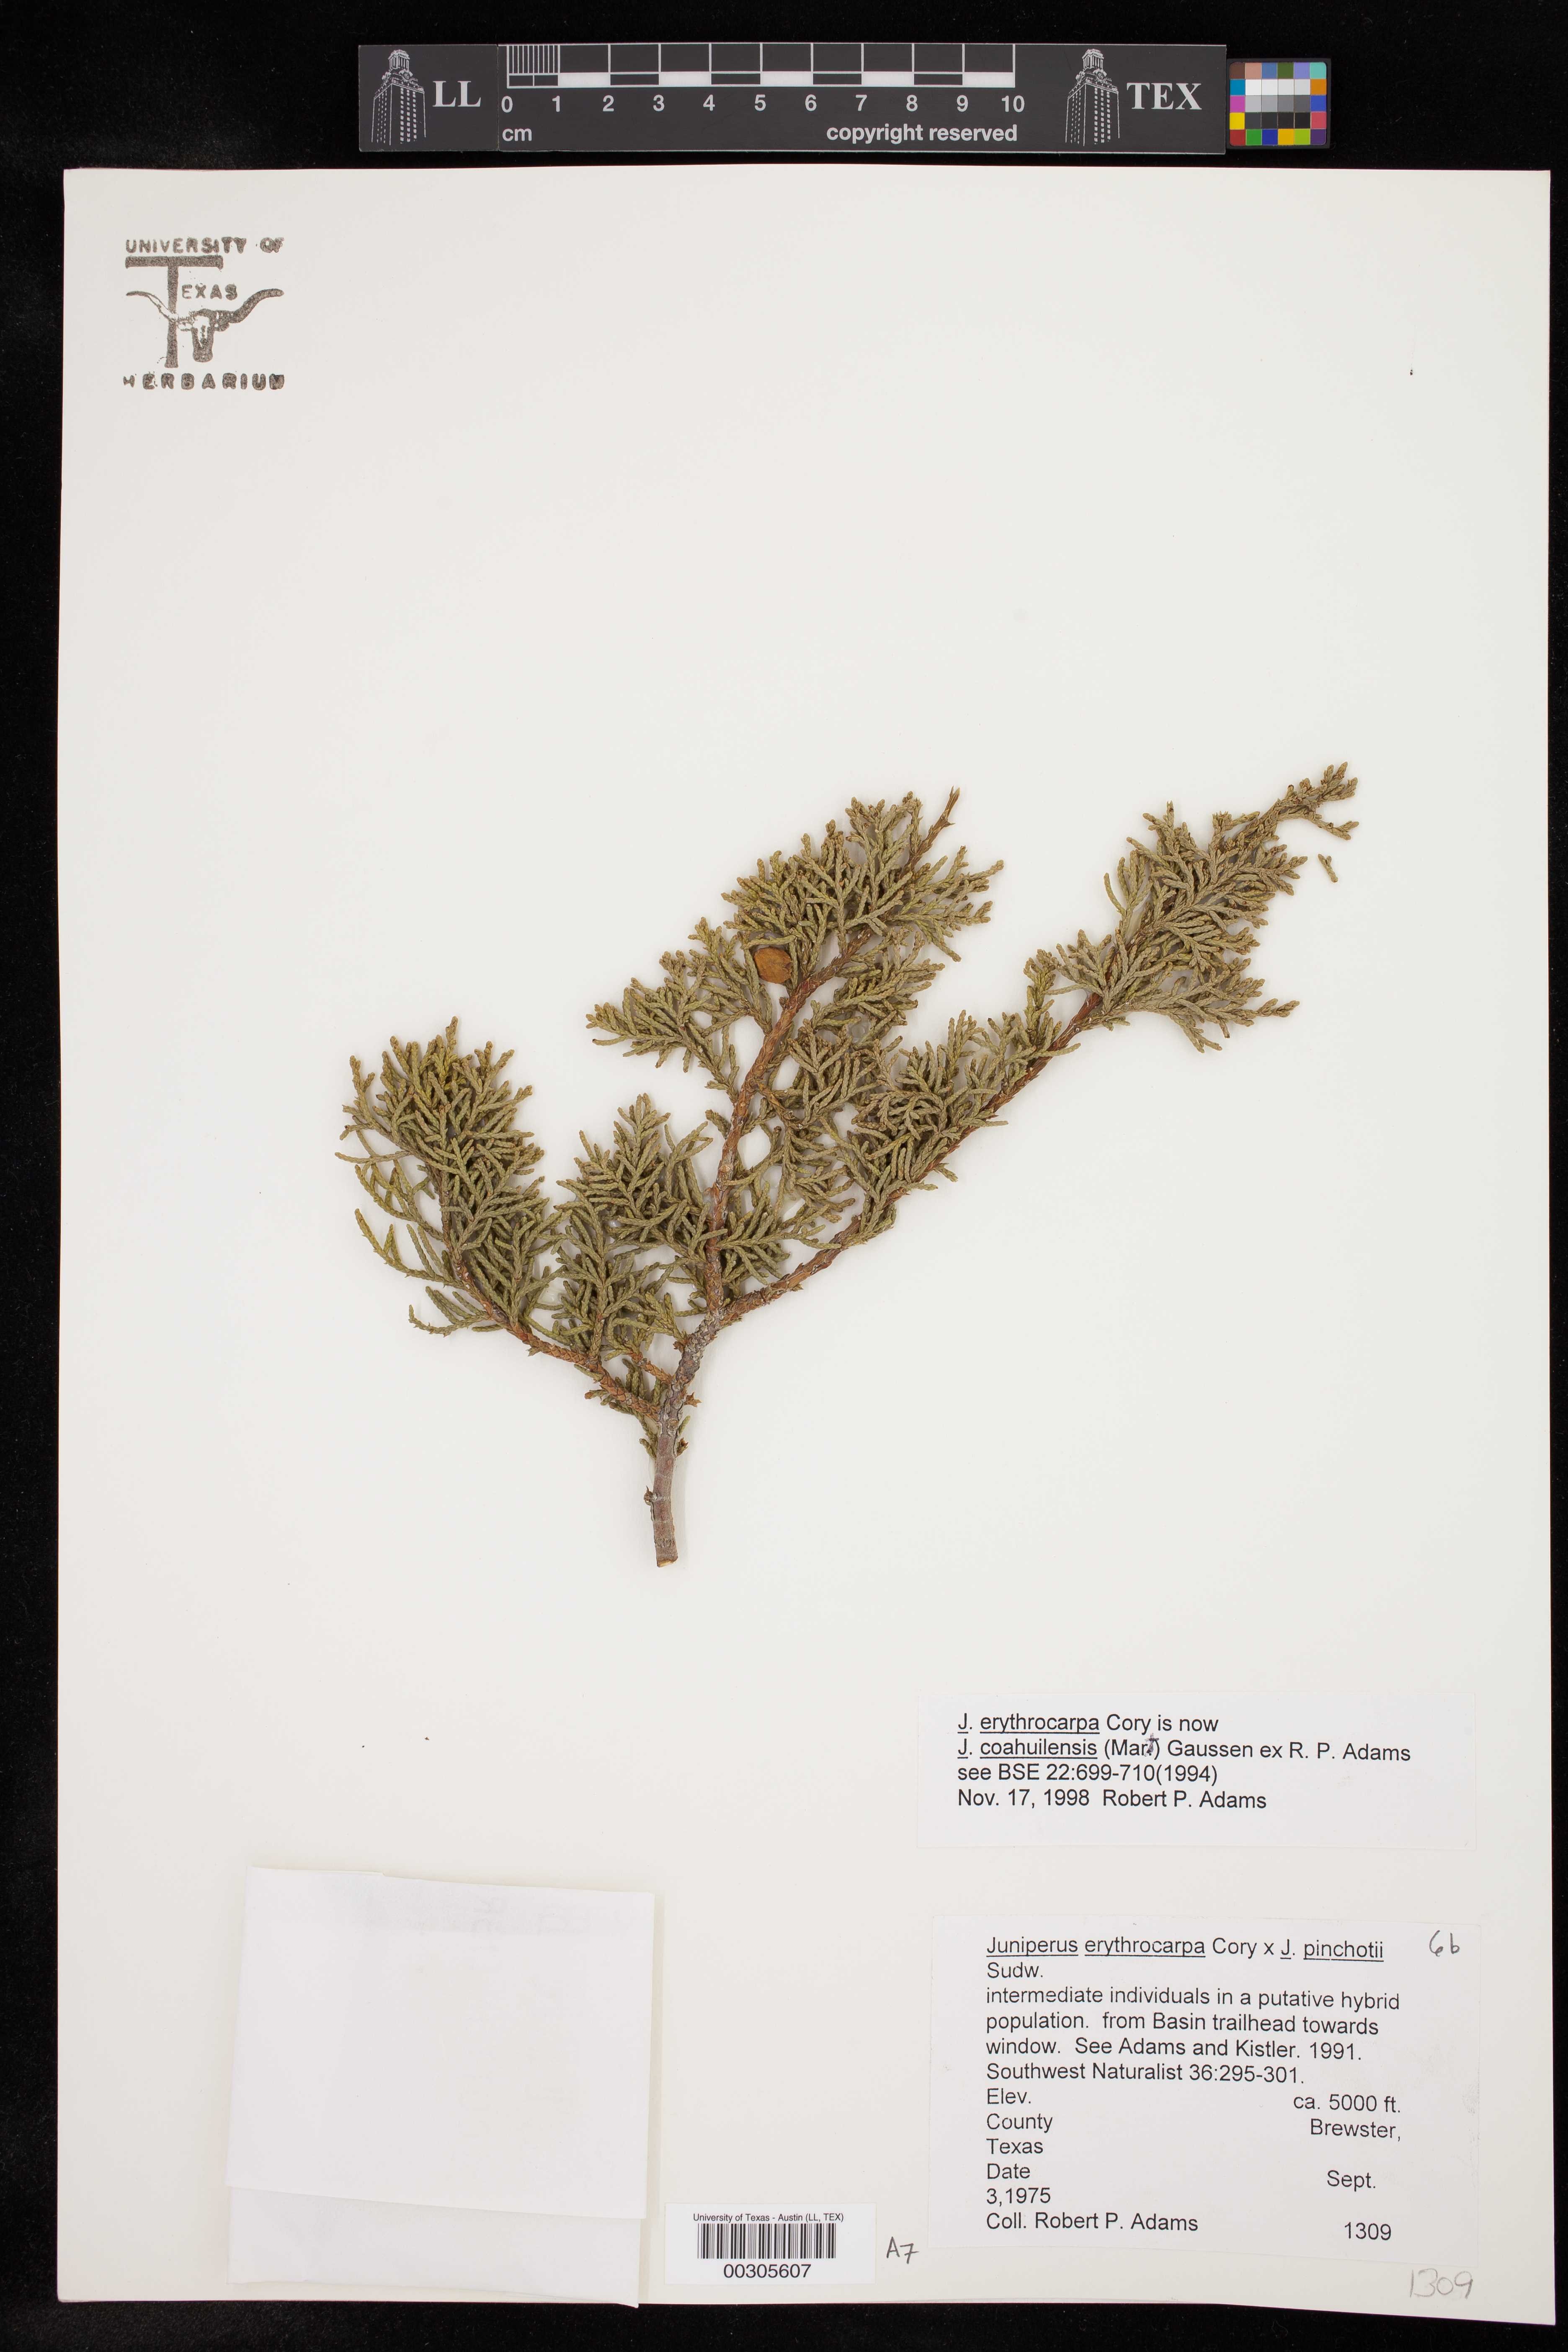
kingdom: Plantae
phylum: Tracheophyta
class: Pinopsida
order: Pinales
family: Cupressaceae
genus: Juniperus
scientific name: Juniperus coahuilensis
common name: Roseberry
